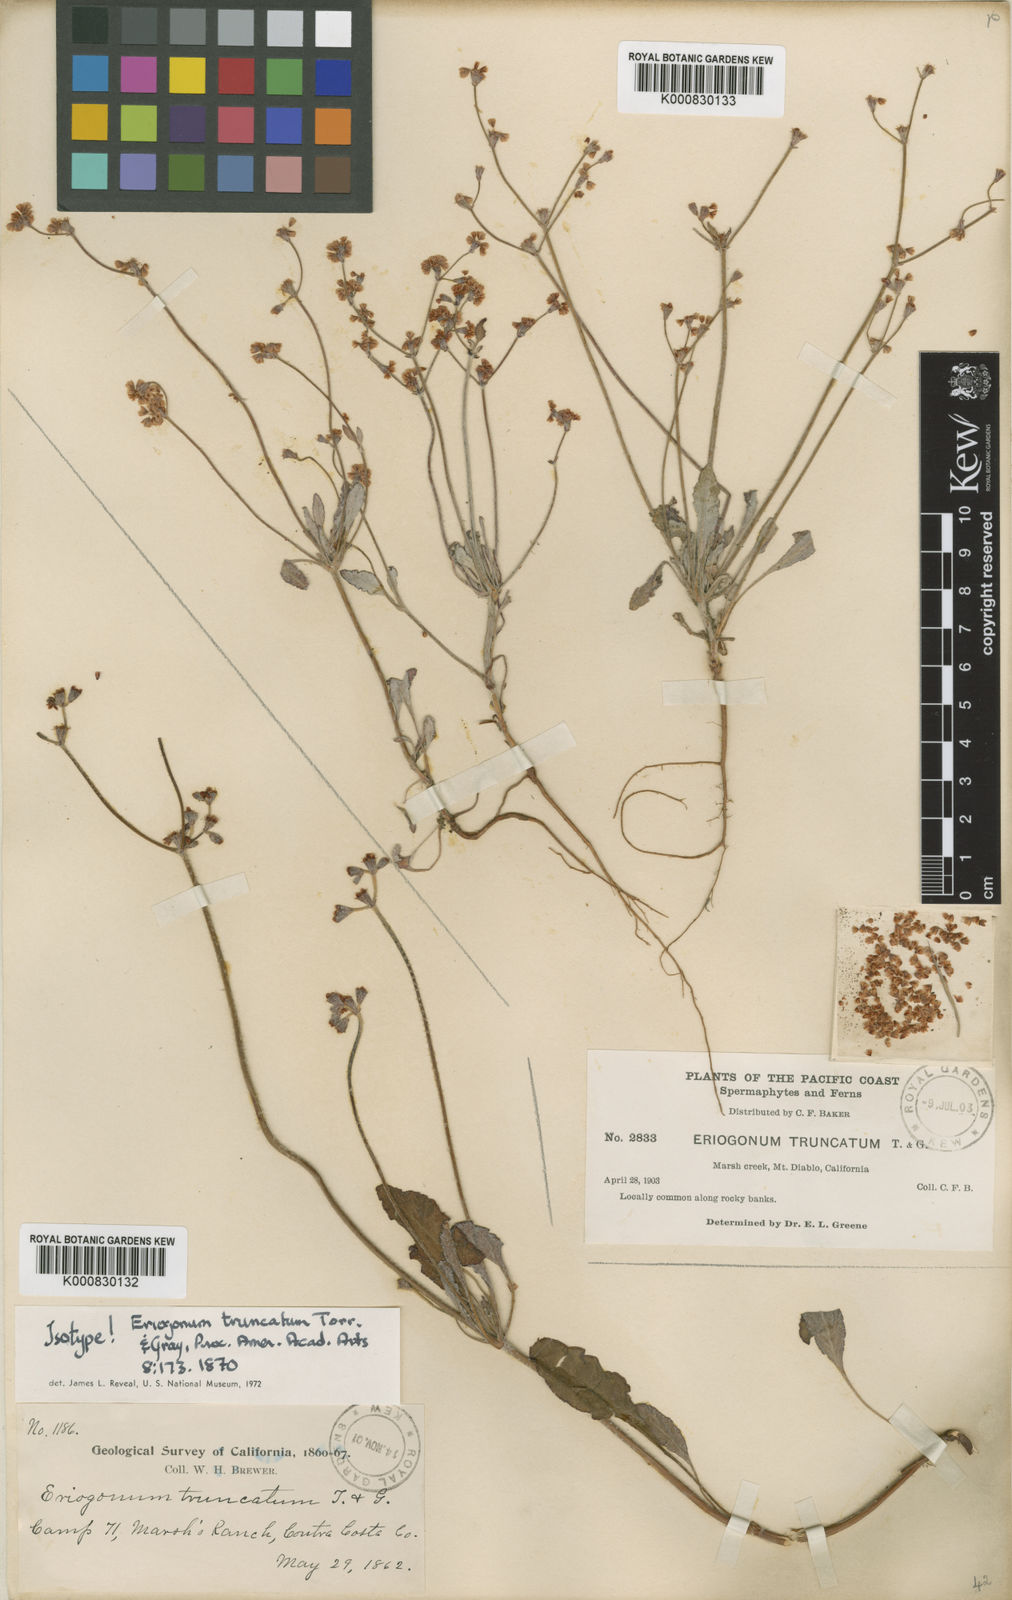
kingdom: Plantae
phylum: Tracheophyta
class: Magnoliopsida
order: Caryophyllales
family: Polygonaceae
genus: Eriogonum
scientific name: Eriogonum truncatum
